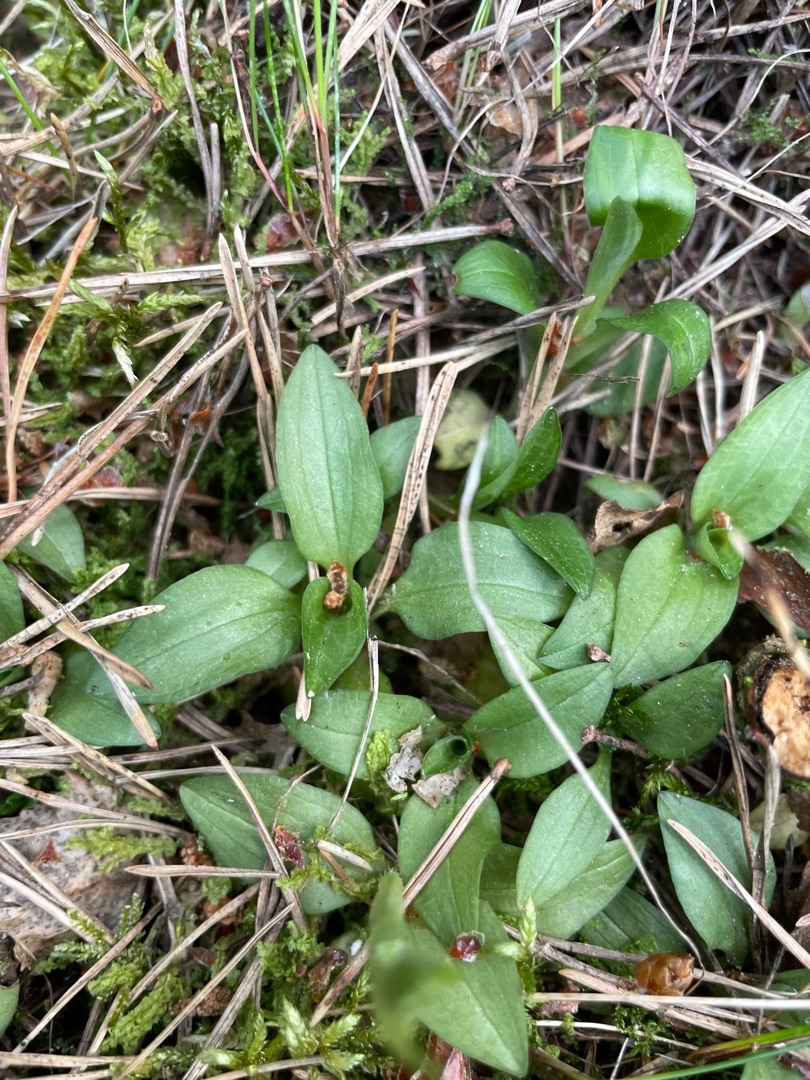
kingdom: Plantae
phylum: Tracheophyta
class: Liliopsida
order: Asparagales
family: Orchidaceae
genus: Goodyera
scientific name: Goodyera repens
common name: Knærod
